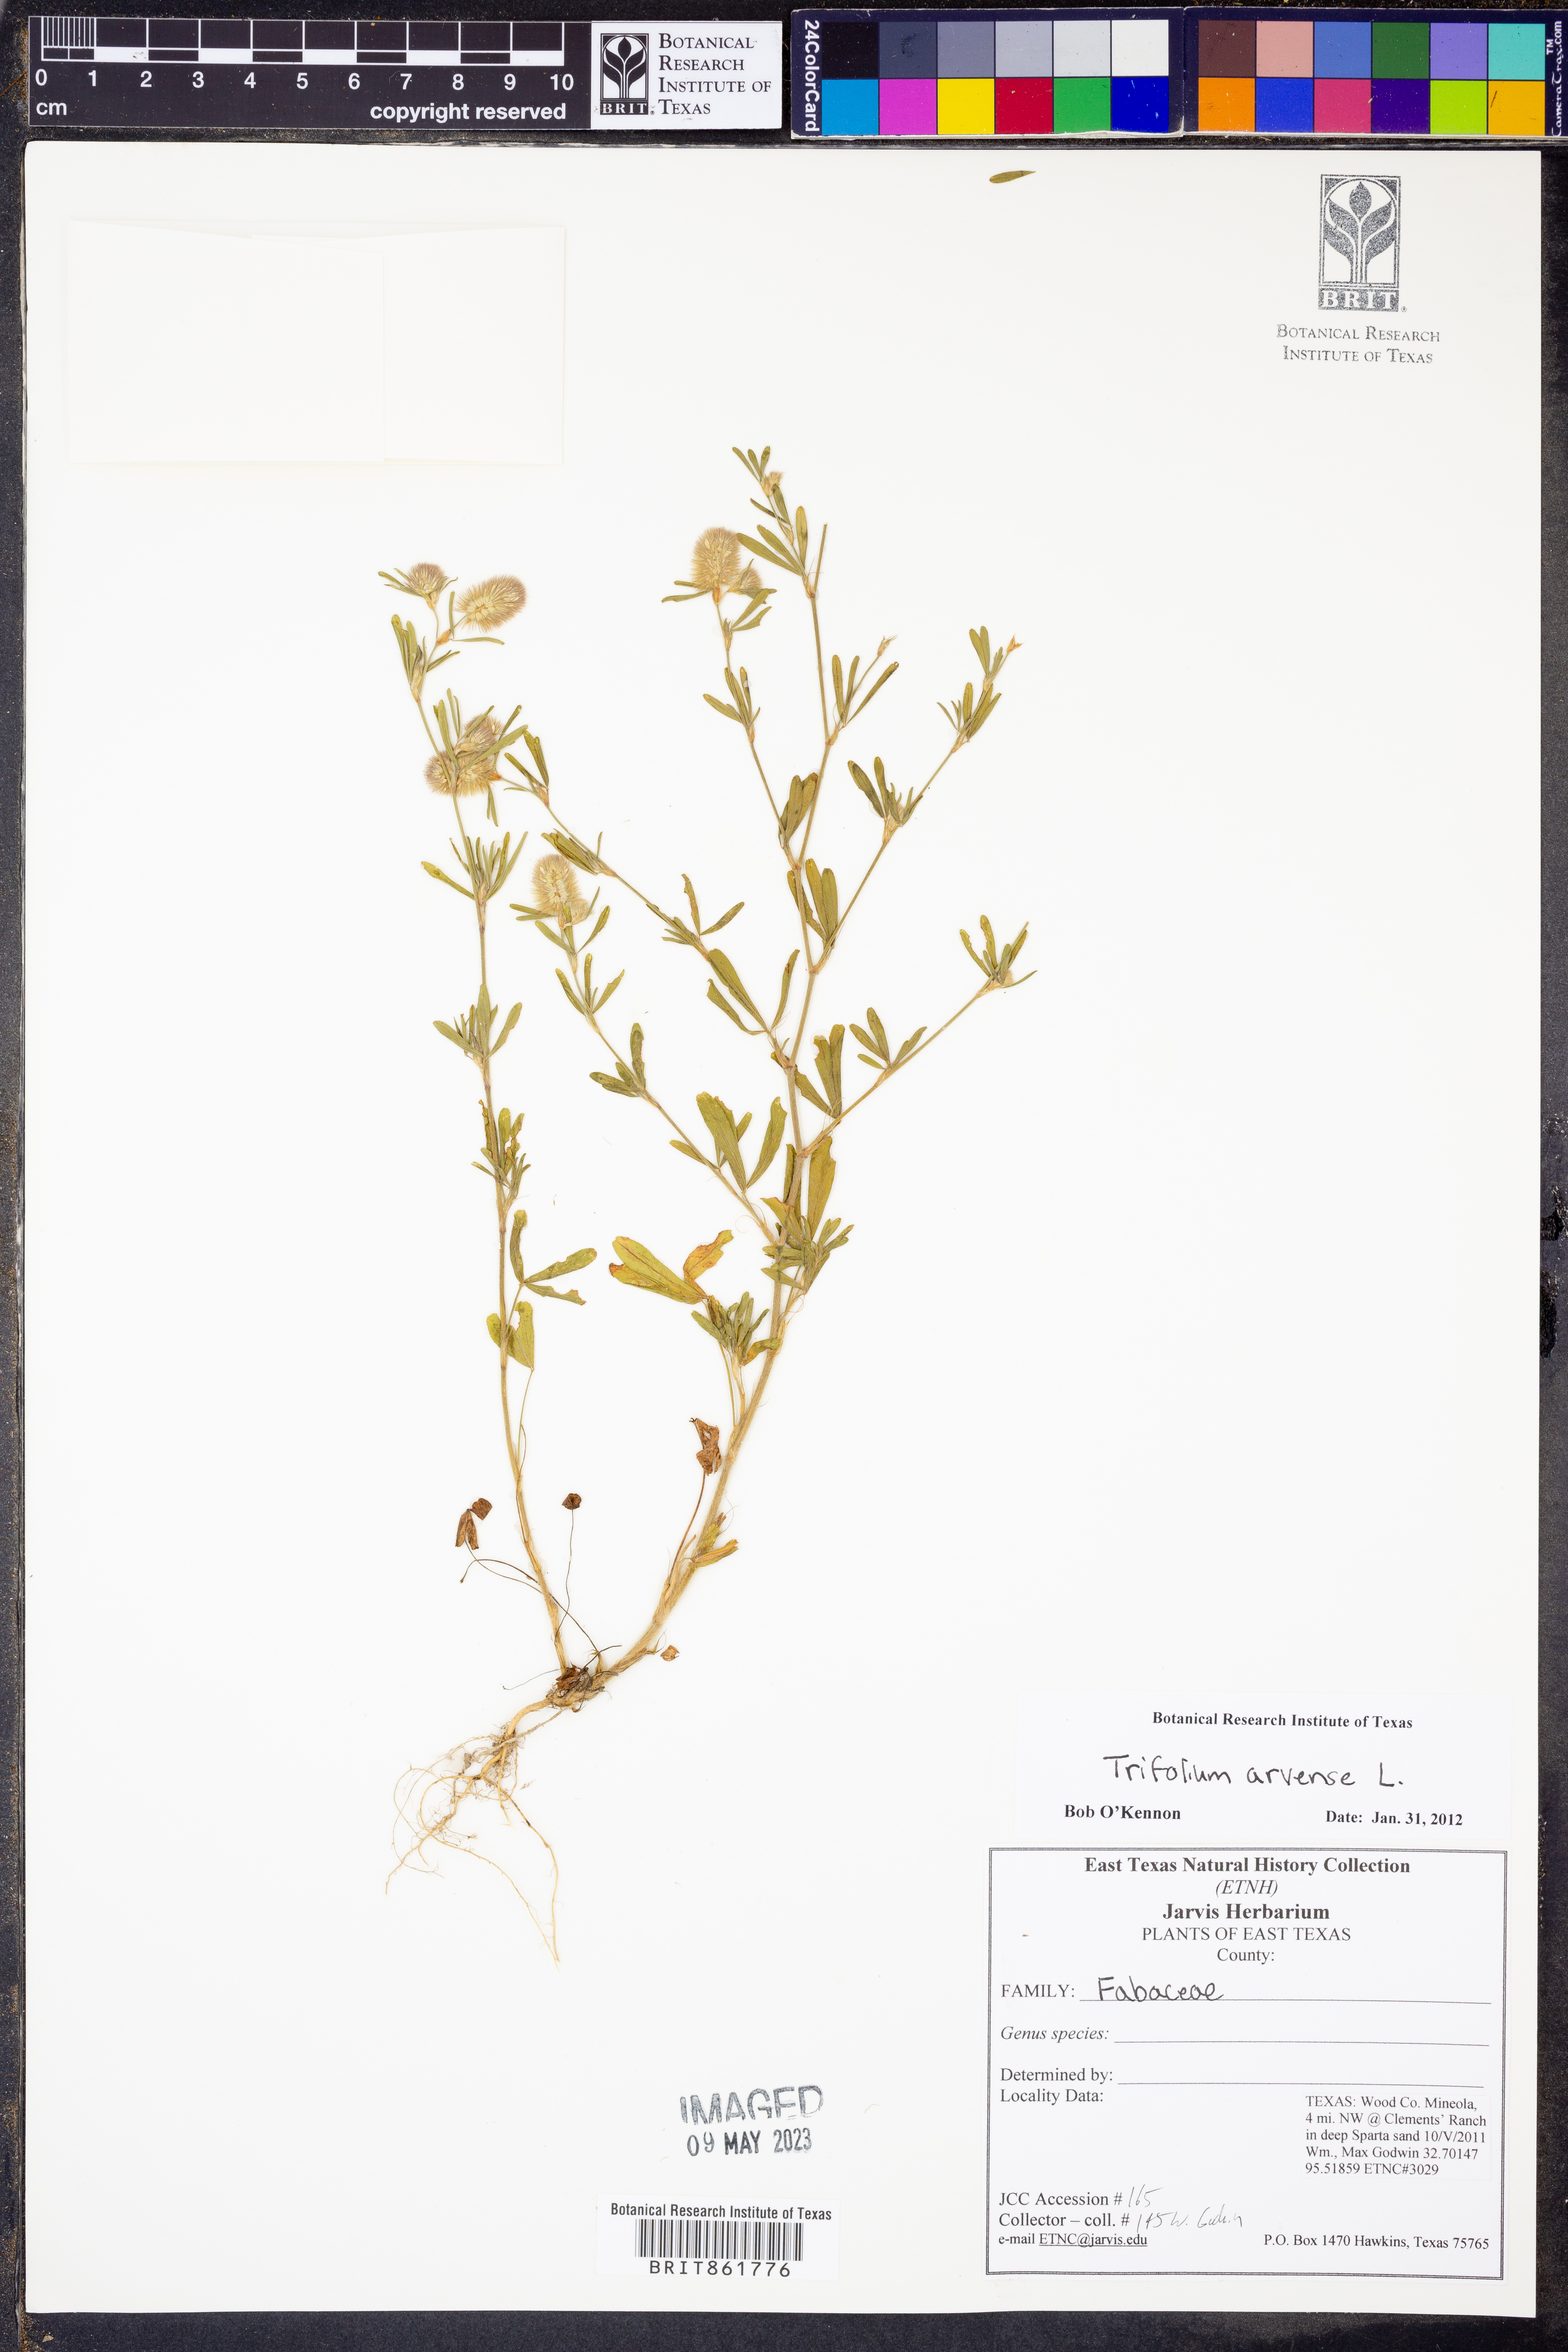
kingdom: Plantae
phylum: Tracheophyta
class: Magnoliopsida
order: Fabales
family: Fabaceae
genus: Trifolium
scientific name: Trifolium arvense
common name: Hare's-foot clover
